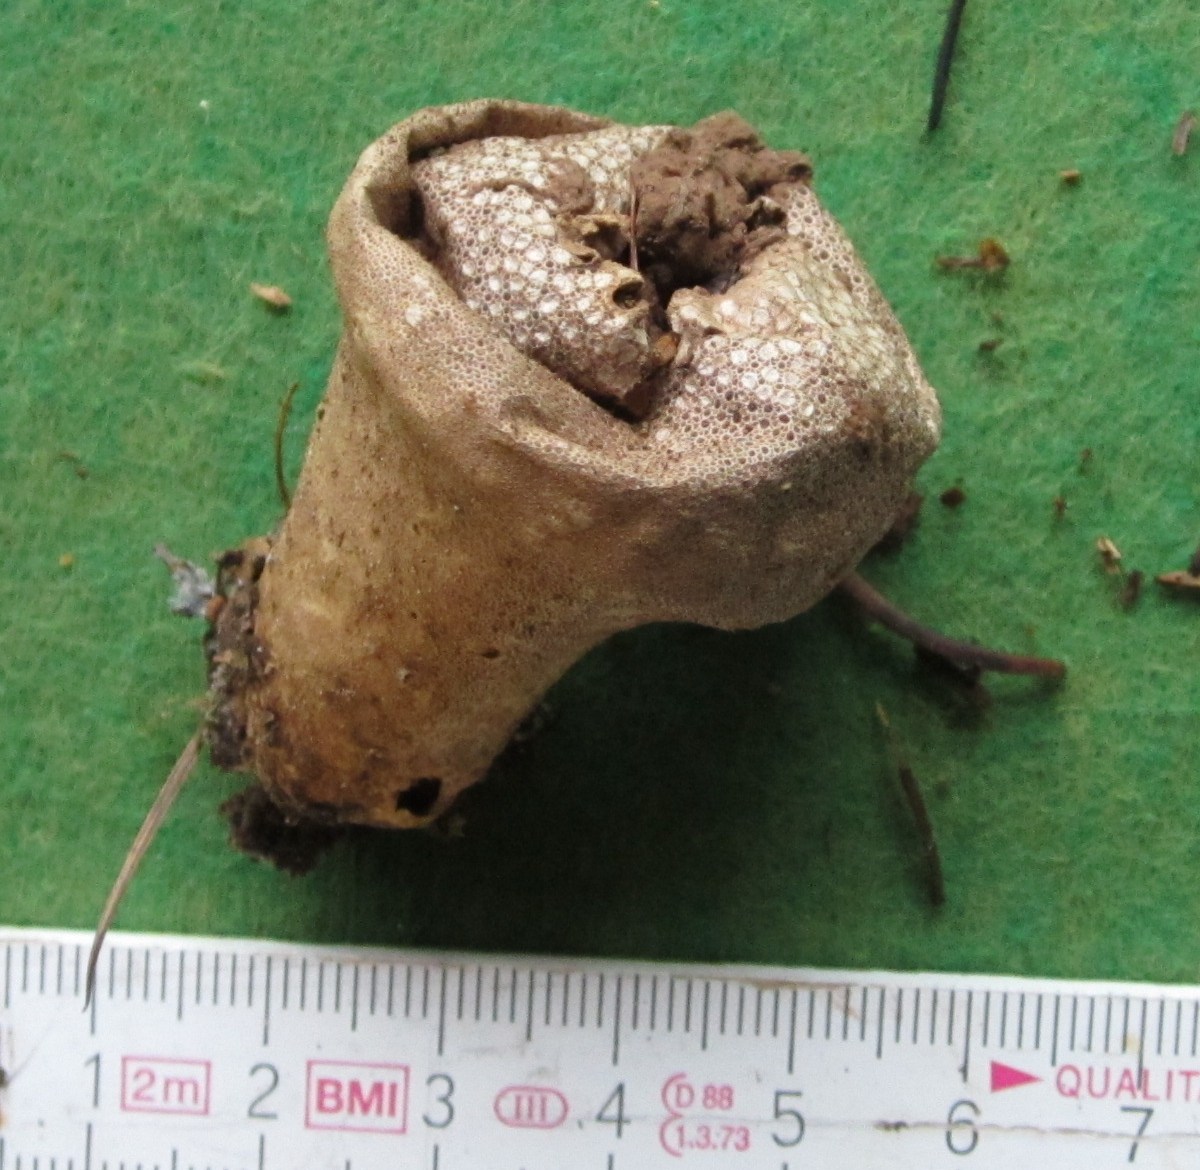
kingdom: Fungi
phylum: Basidiomycota
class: Agaricomycetes
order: Agaricales
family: Lycoperdaceae
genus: Lycoperdon
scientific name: Lycoperdon perlatum
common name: krystal-støvbold
